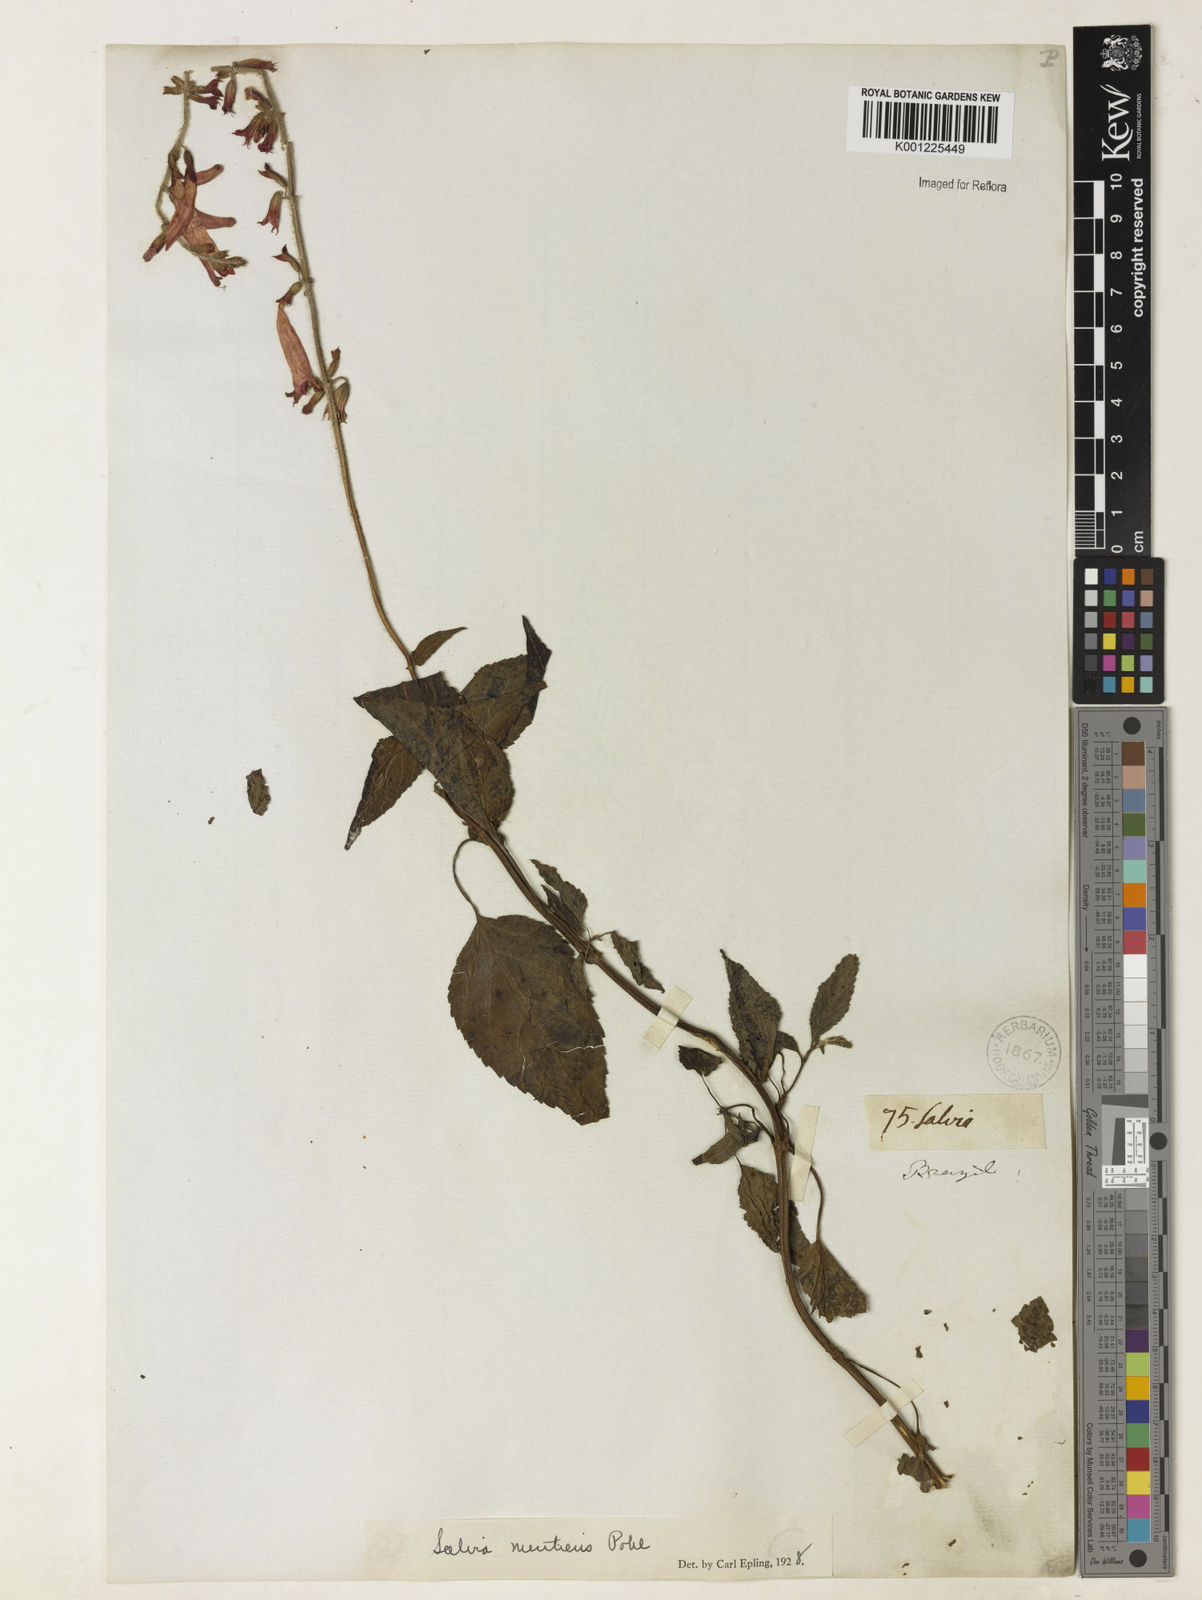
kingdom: Plantae
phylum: Tracheophyta
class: Magnoliopsida
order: Lamiales
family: Lamiaceae
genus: Salvia
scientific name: Salvia mentiens
